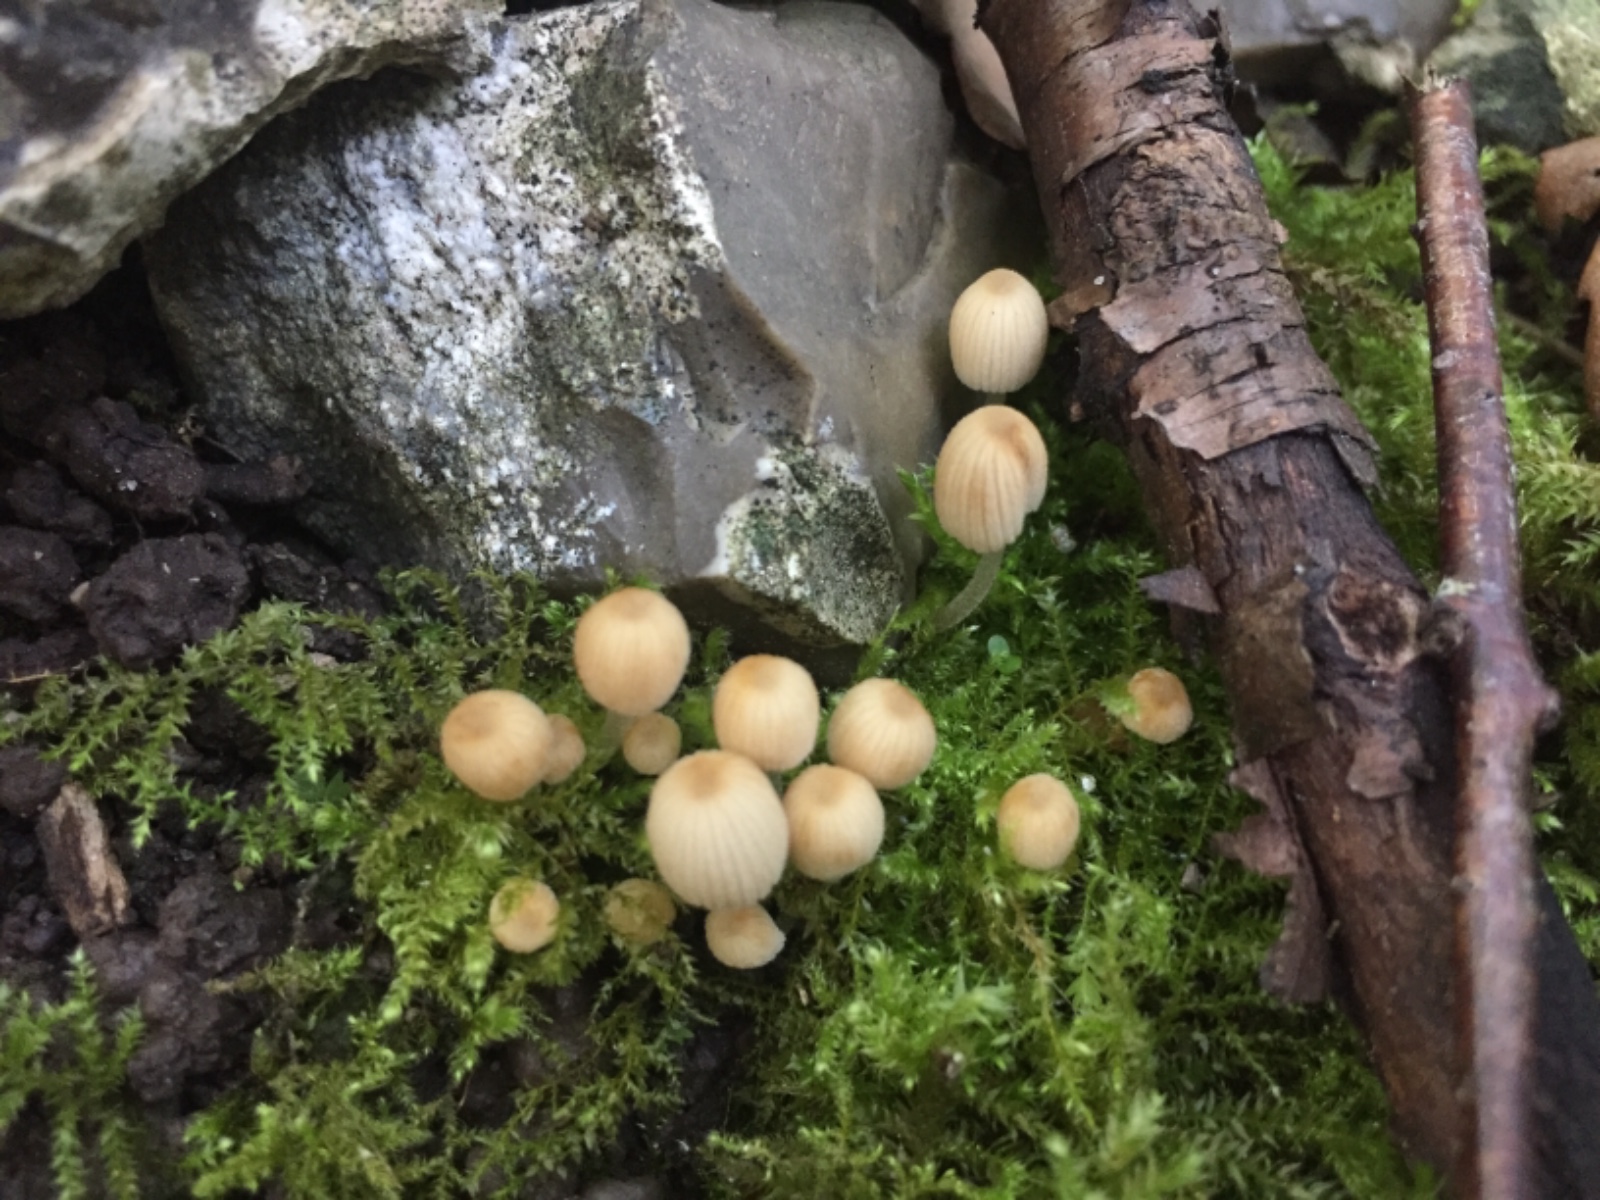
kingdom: Fungi
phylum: Basidiomycota
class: Agaricomycetes
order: Agaricales
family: Psathyrellaceae
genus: Coprinellus
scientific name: Coprinellus disseminatus
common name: bredsået blækhat
